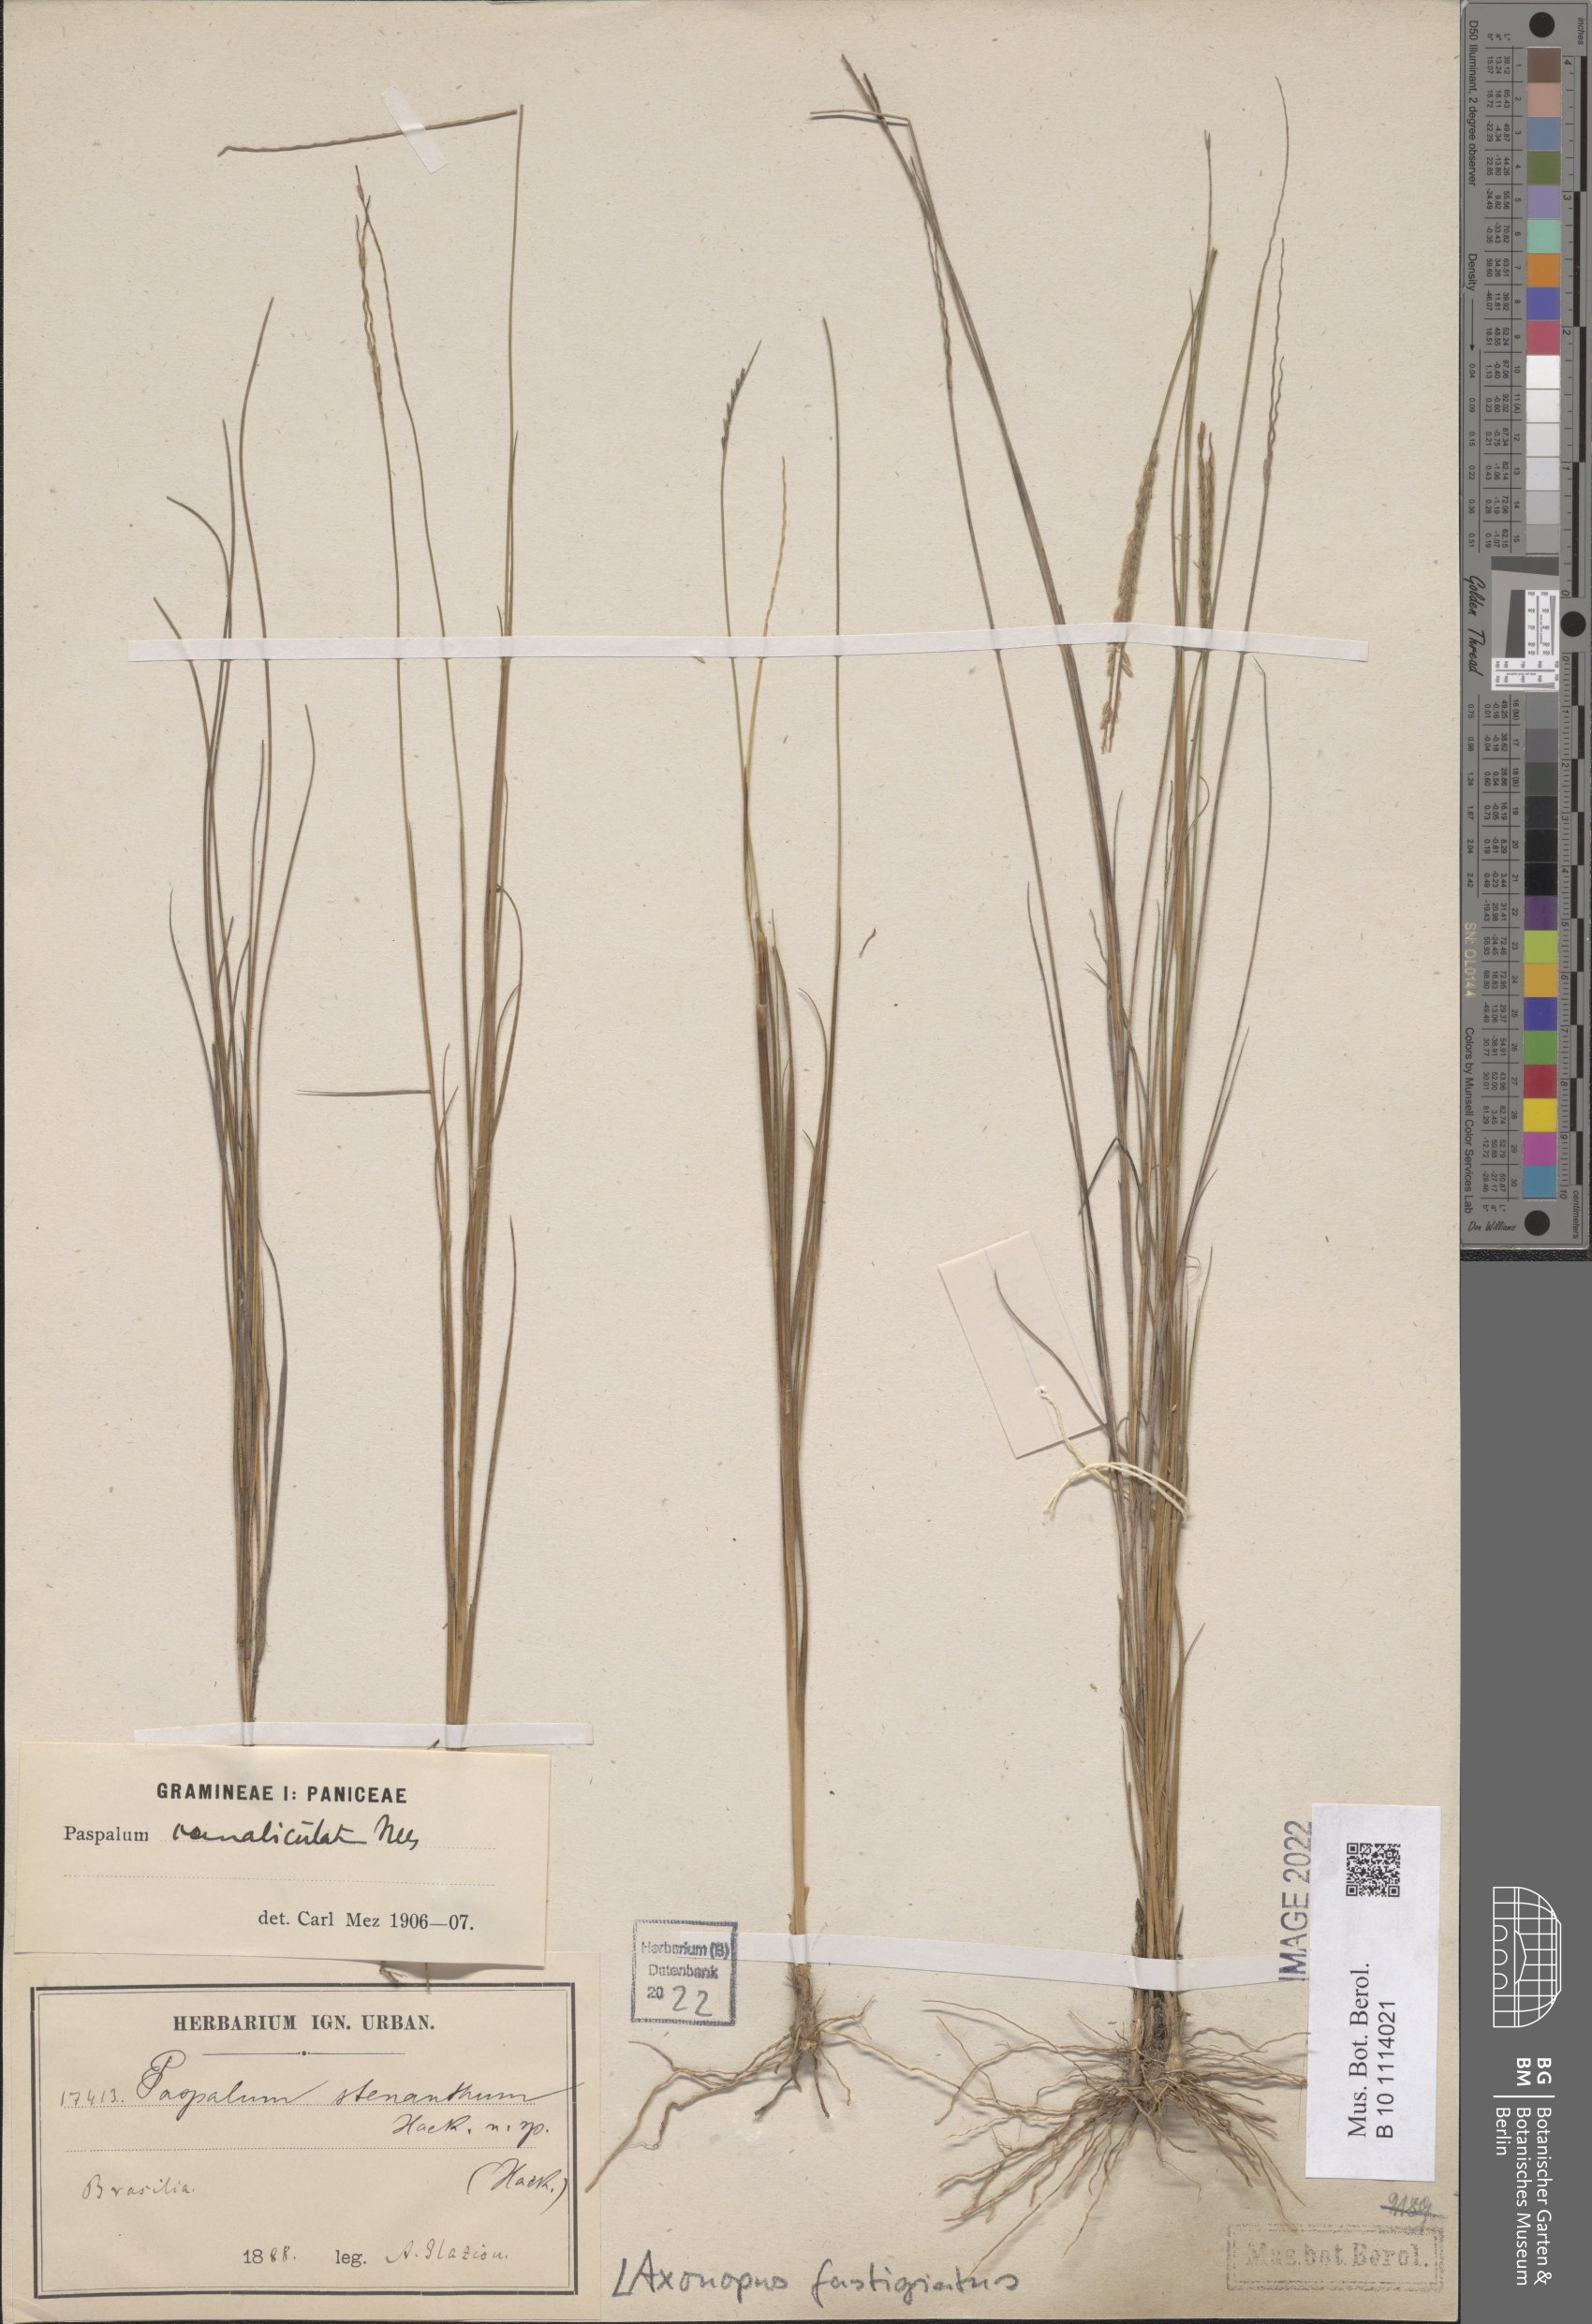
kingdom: Plantae
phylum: Tracheophyta
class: Liliopsida
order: Poales
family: Poaceae
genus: Axonopus
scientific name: Axonopus fastigiatus
